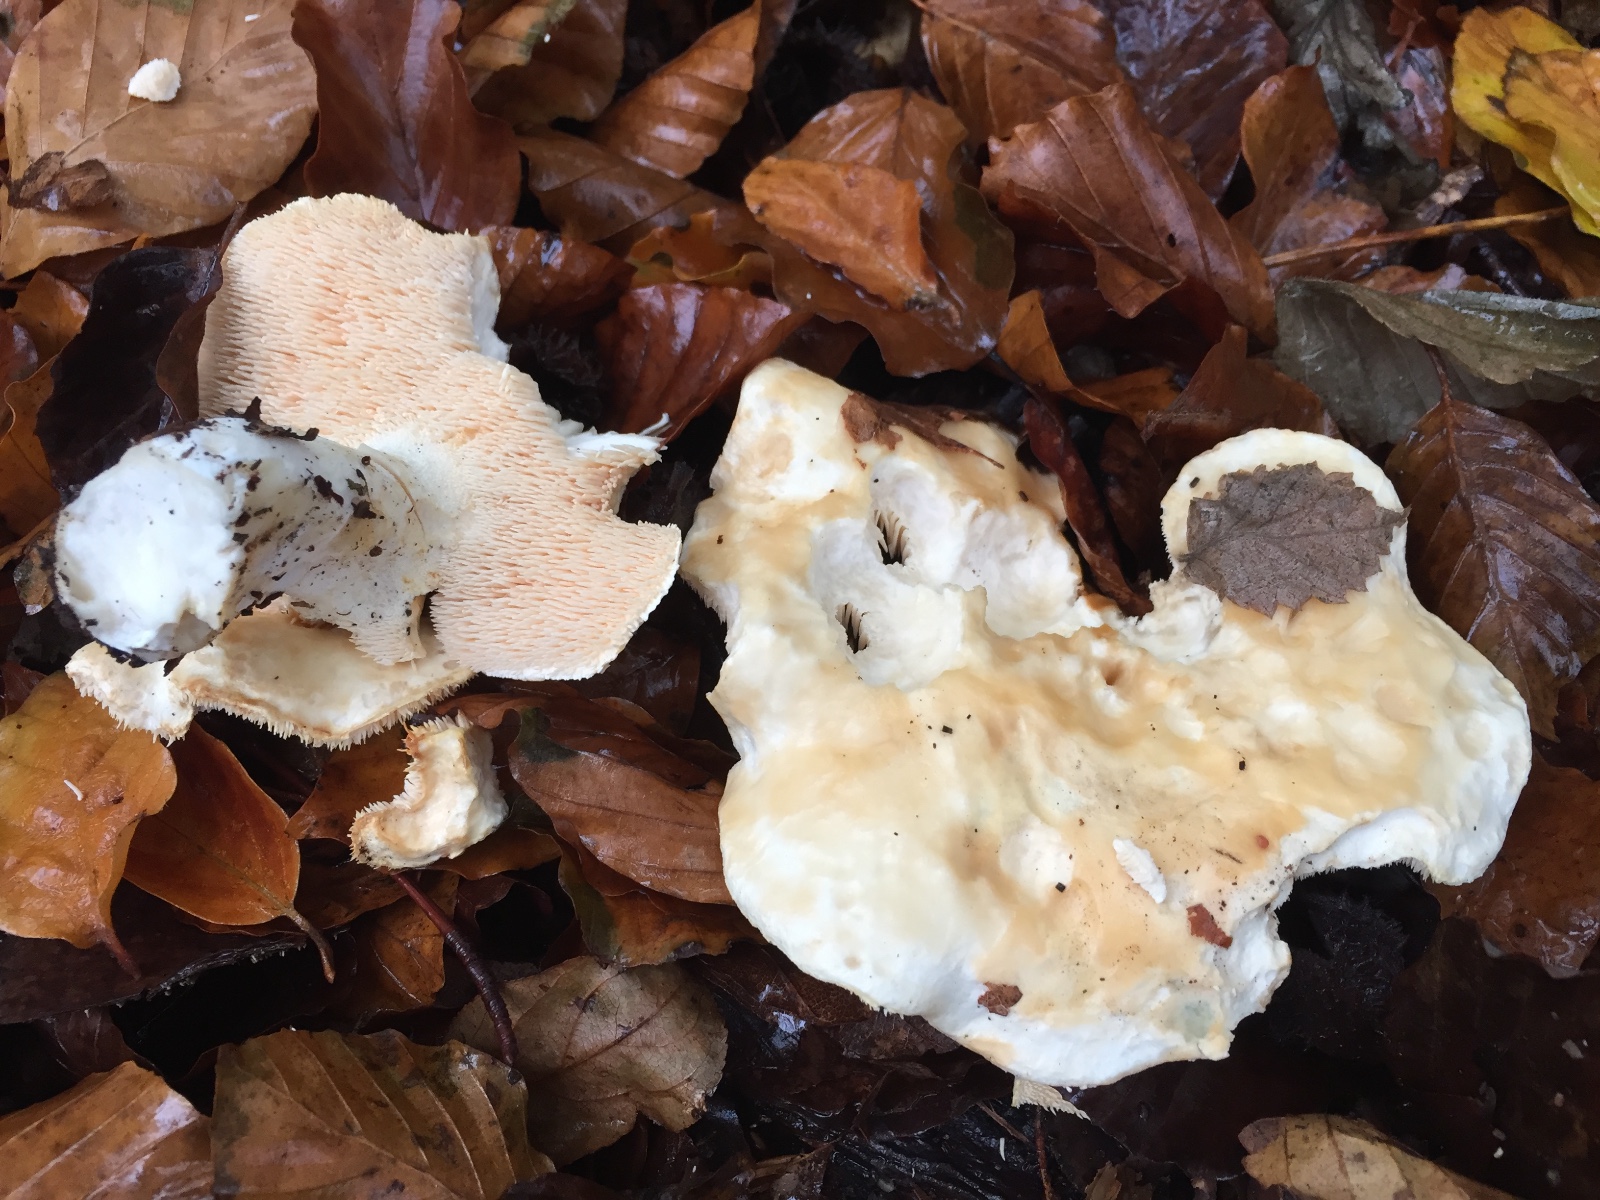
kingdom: Fungi
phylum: Basidiomycota
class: Agaricomycetes
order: Cantharellales
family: Hydnaceae
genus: Hydnum
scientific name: Hydnum repandum
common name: almindelig pigsvamp
